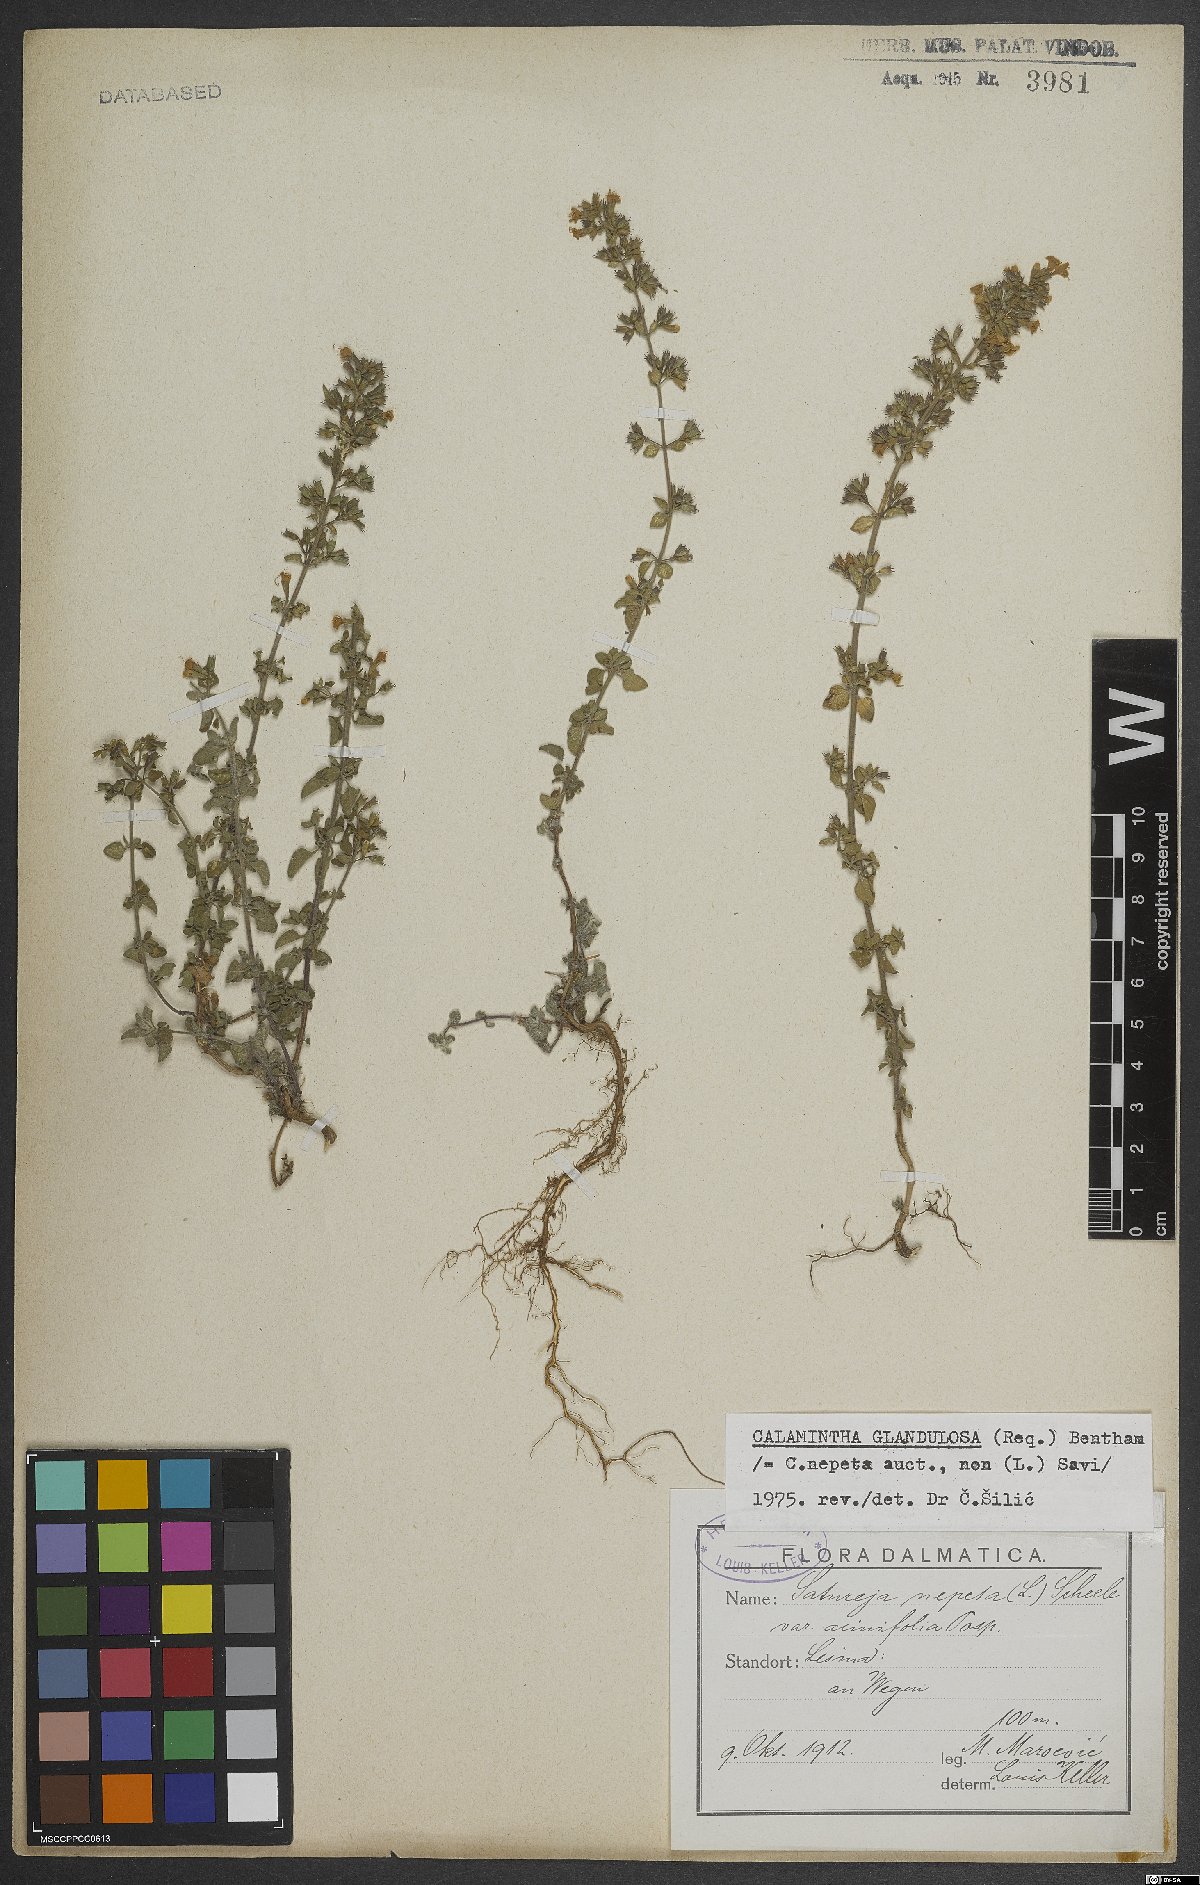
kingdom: Plantae
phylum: Tracheophyta
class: Magnoliopsida
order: Lamiales
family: Lamiaceae
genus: Clinopodium
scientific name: Clinopodium nepeta
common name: Lesser calamint
